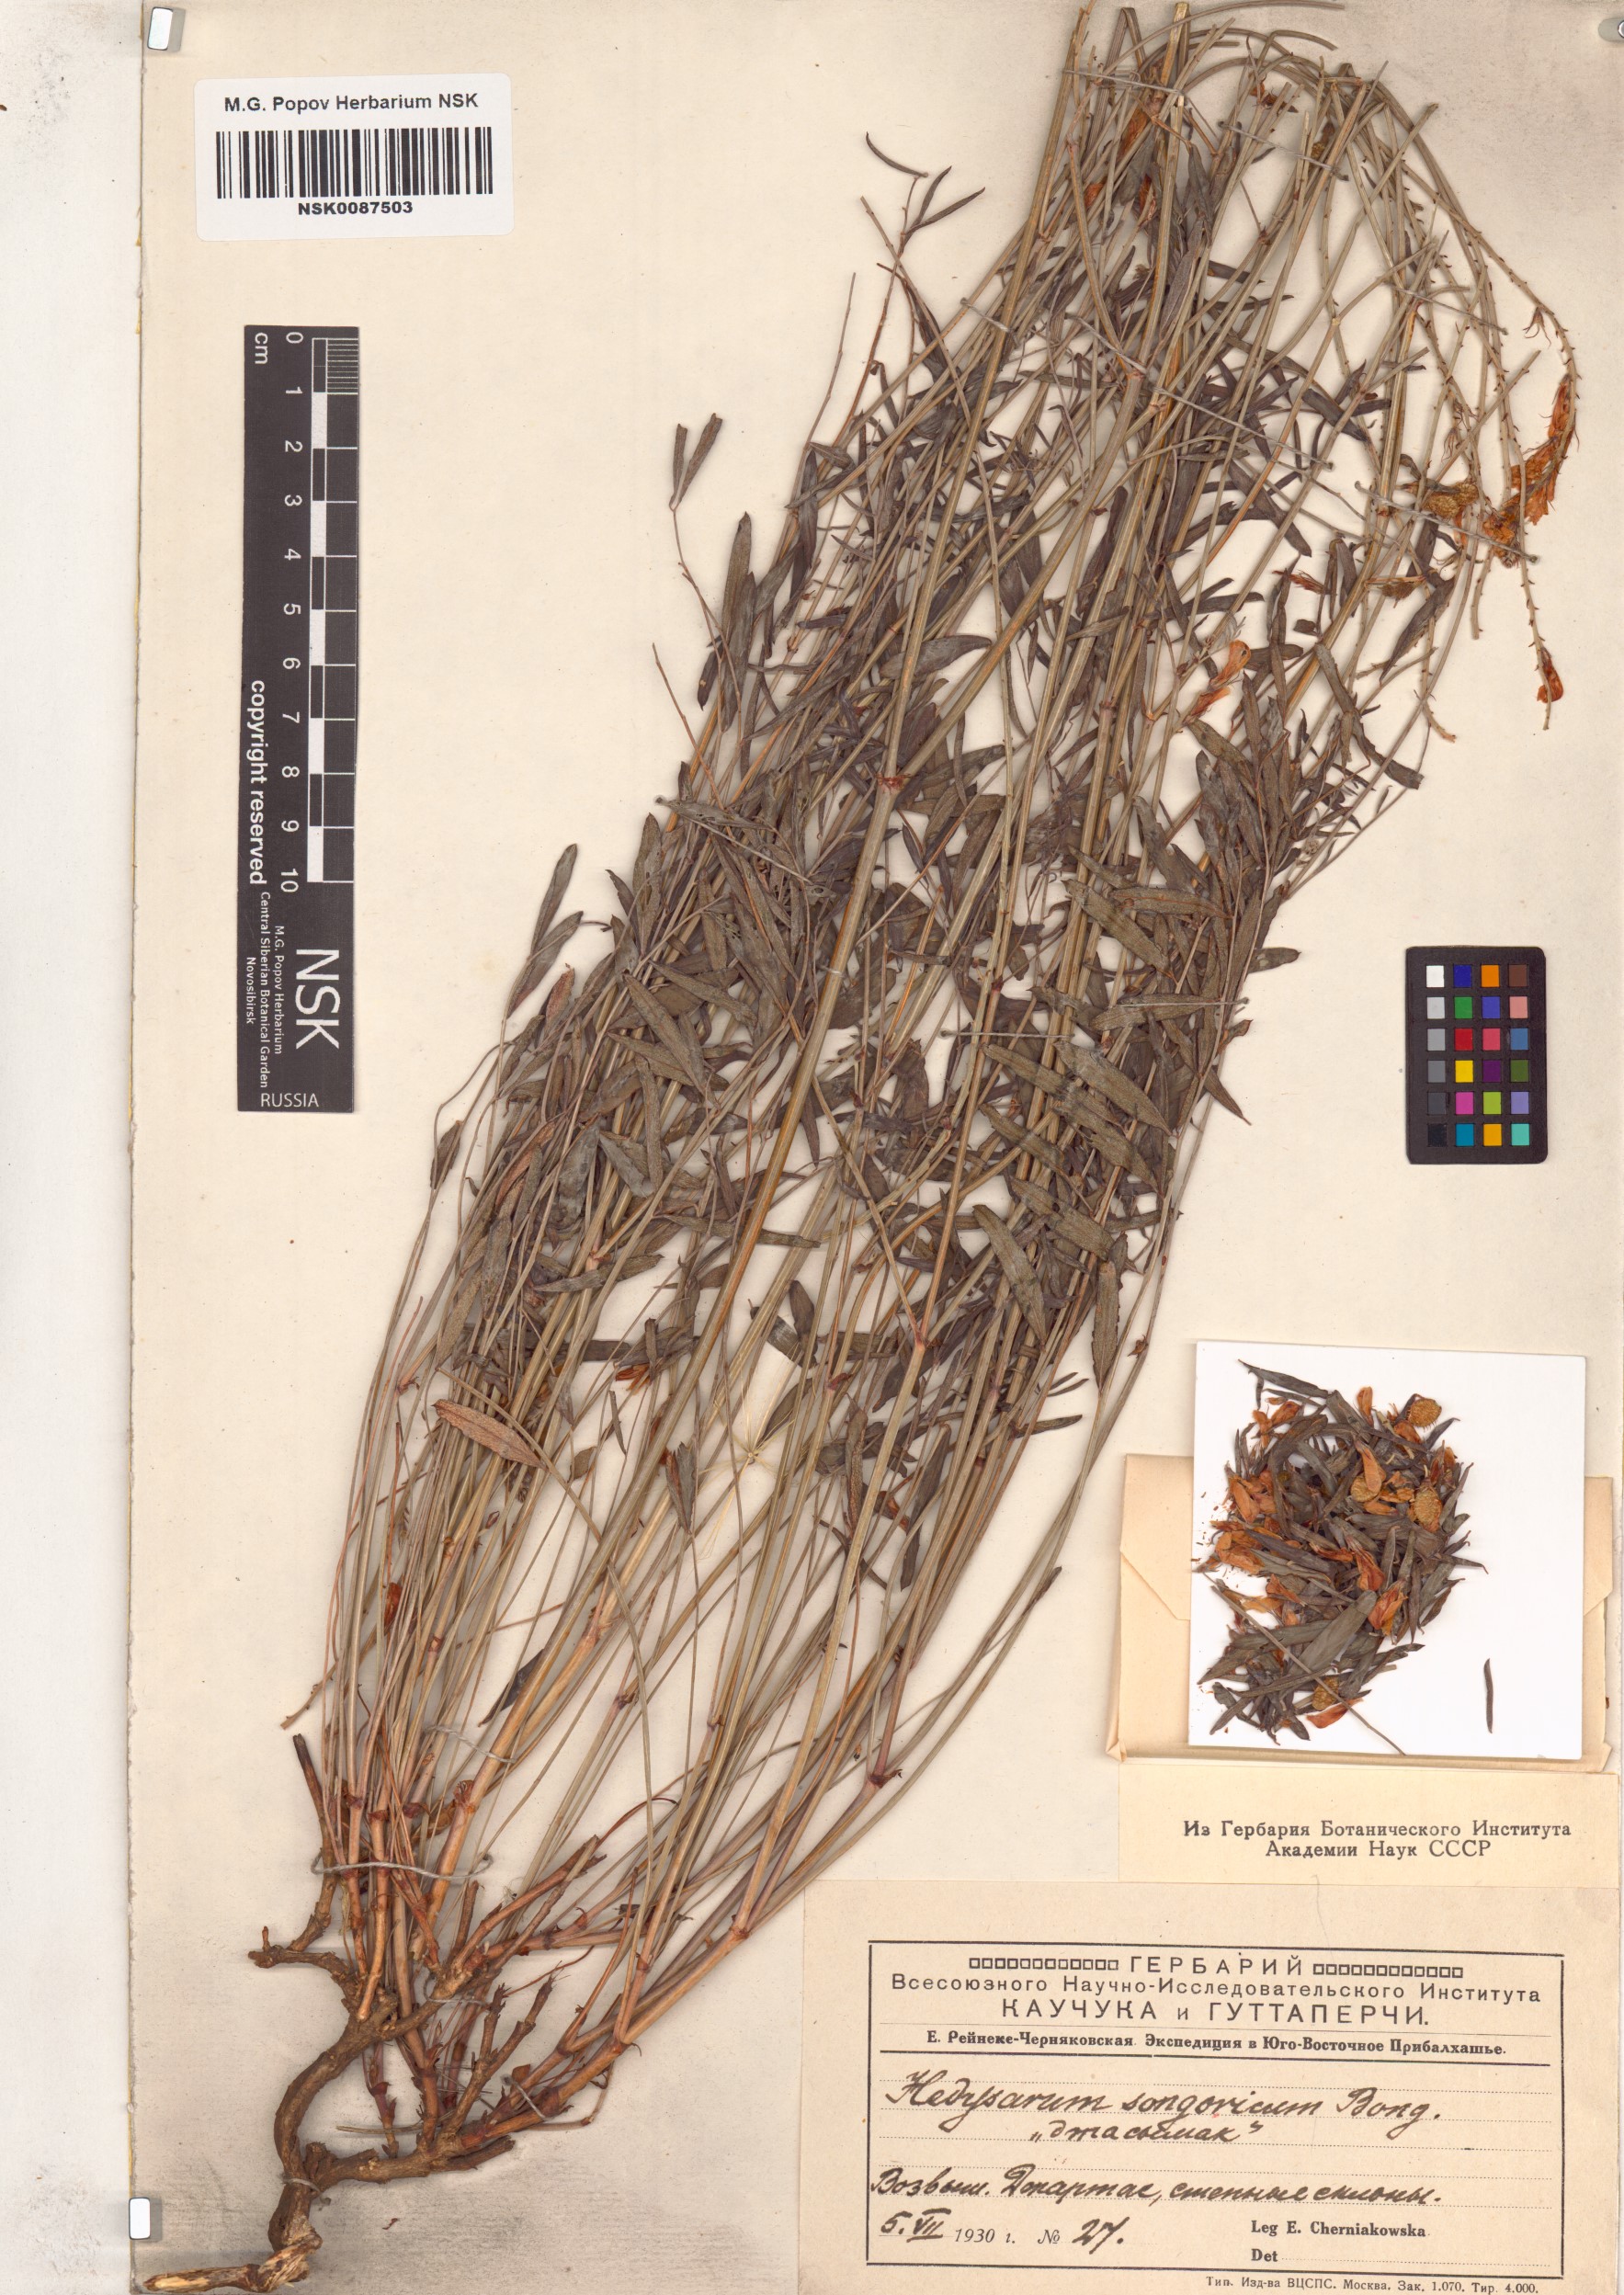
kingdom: Plantae
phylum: Tracheophyta
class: Magnoliopsida
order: Fabales
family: Fabaceae
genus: Hedysarum
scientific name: Hedysarum songaricum
